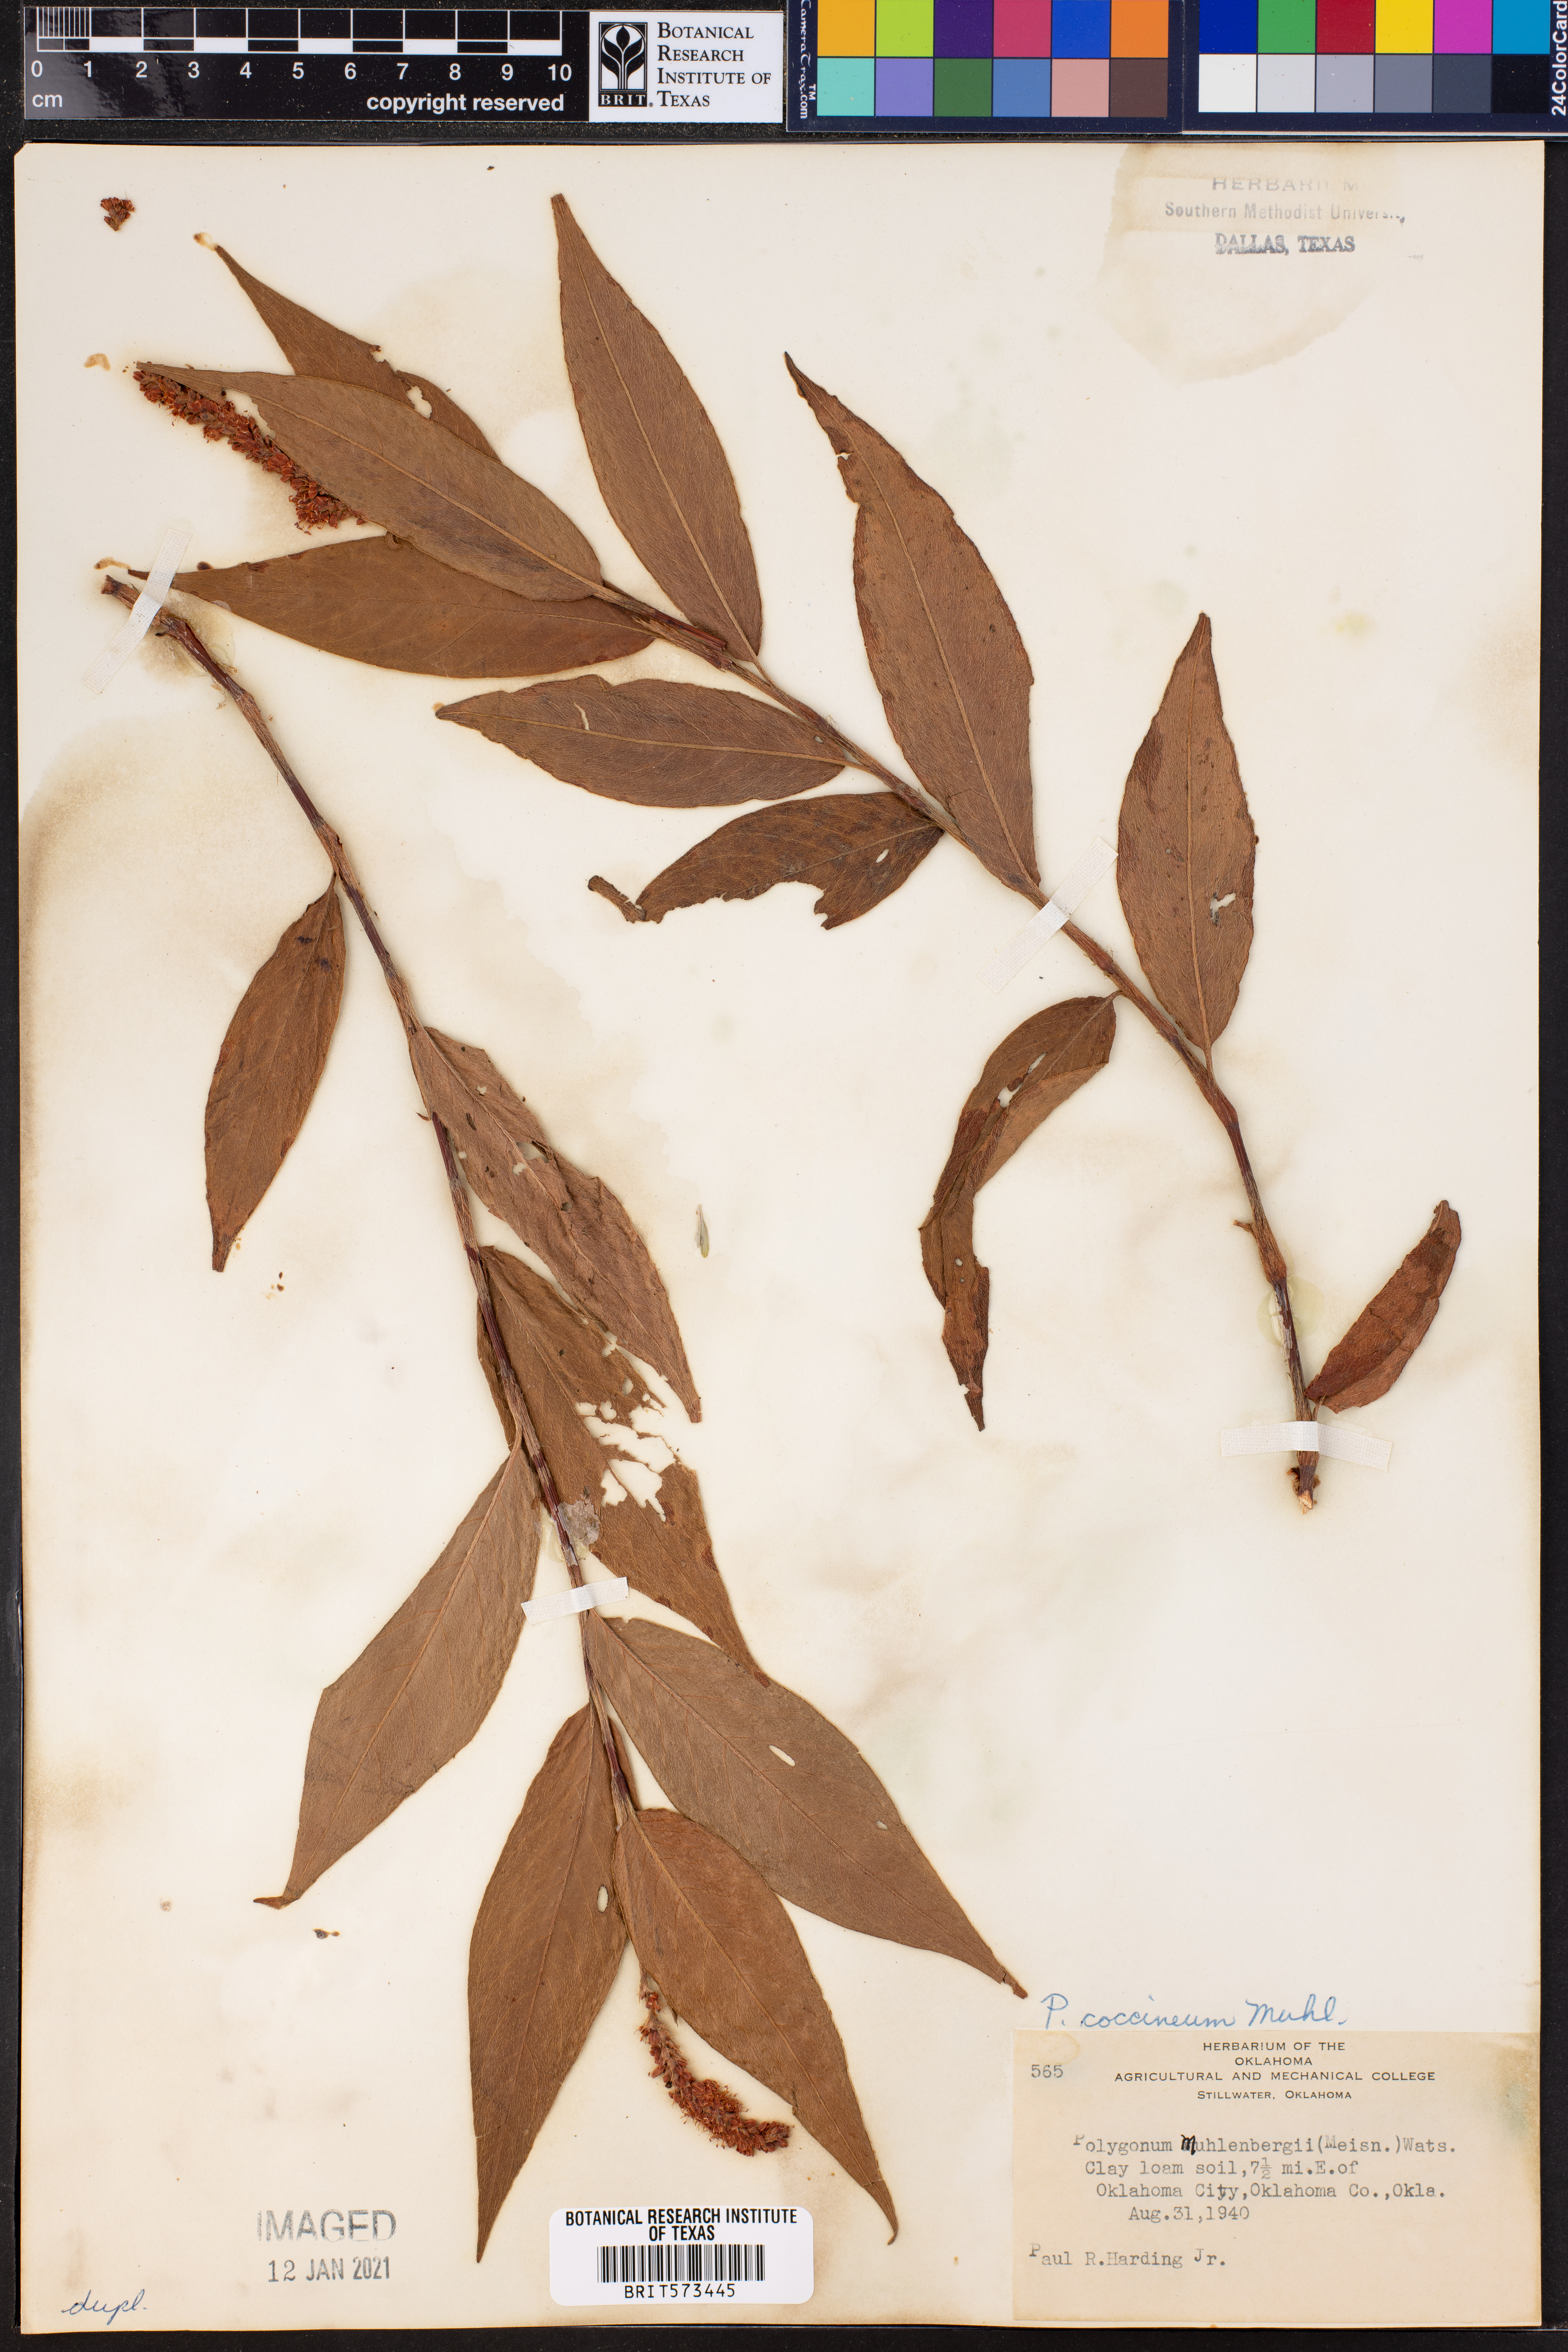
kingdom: Plantae
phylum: Tracheophyta
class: Magnoliopsida
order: Caryophyllales
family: Polygonaceae
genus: Persicaria
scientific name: Persicaria amphibia
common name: Amphibious bistort
